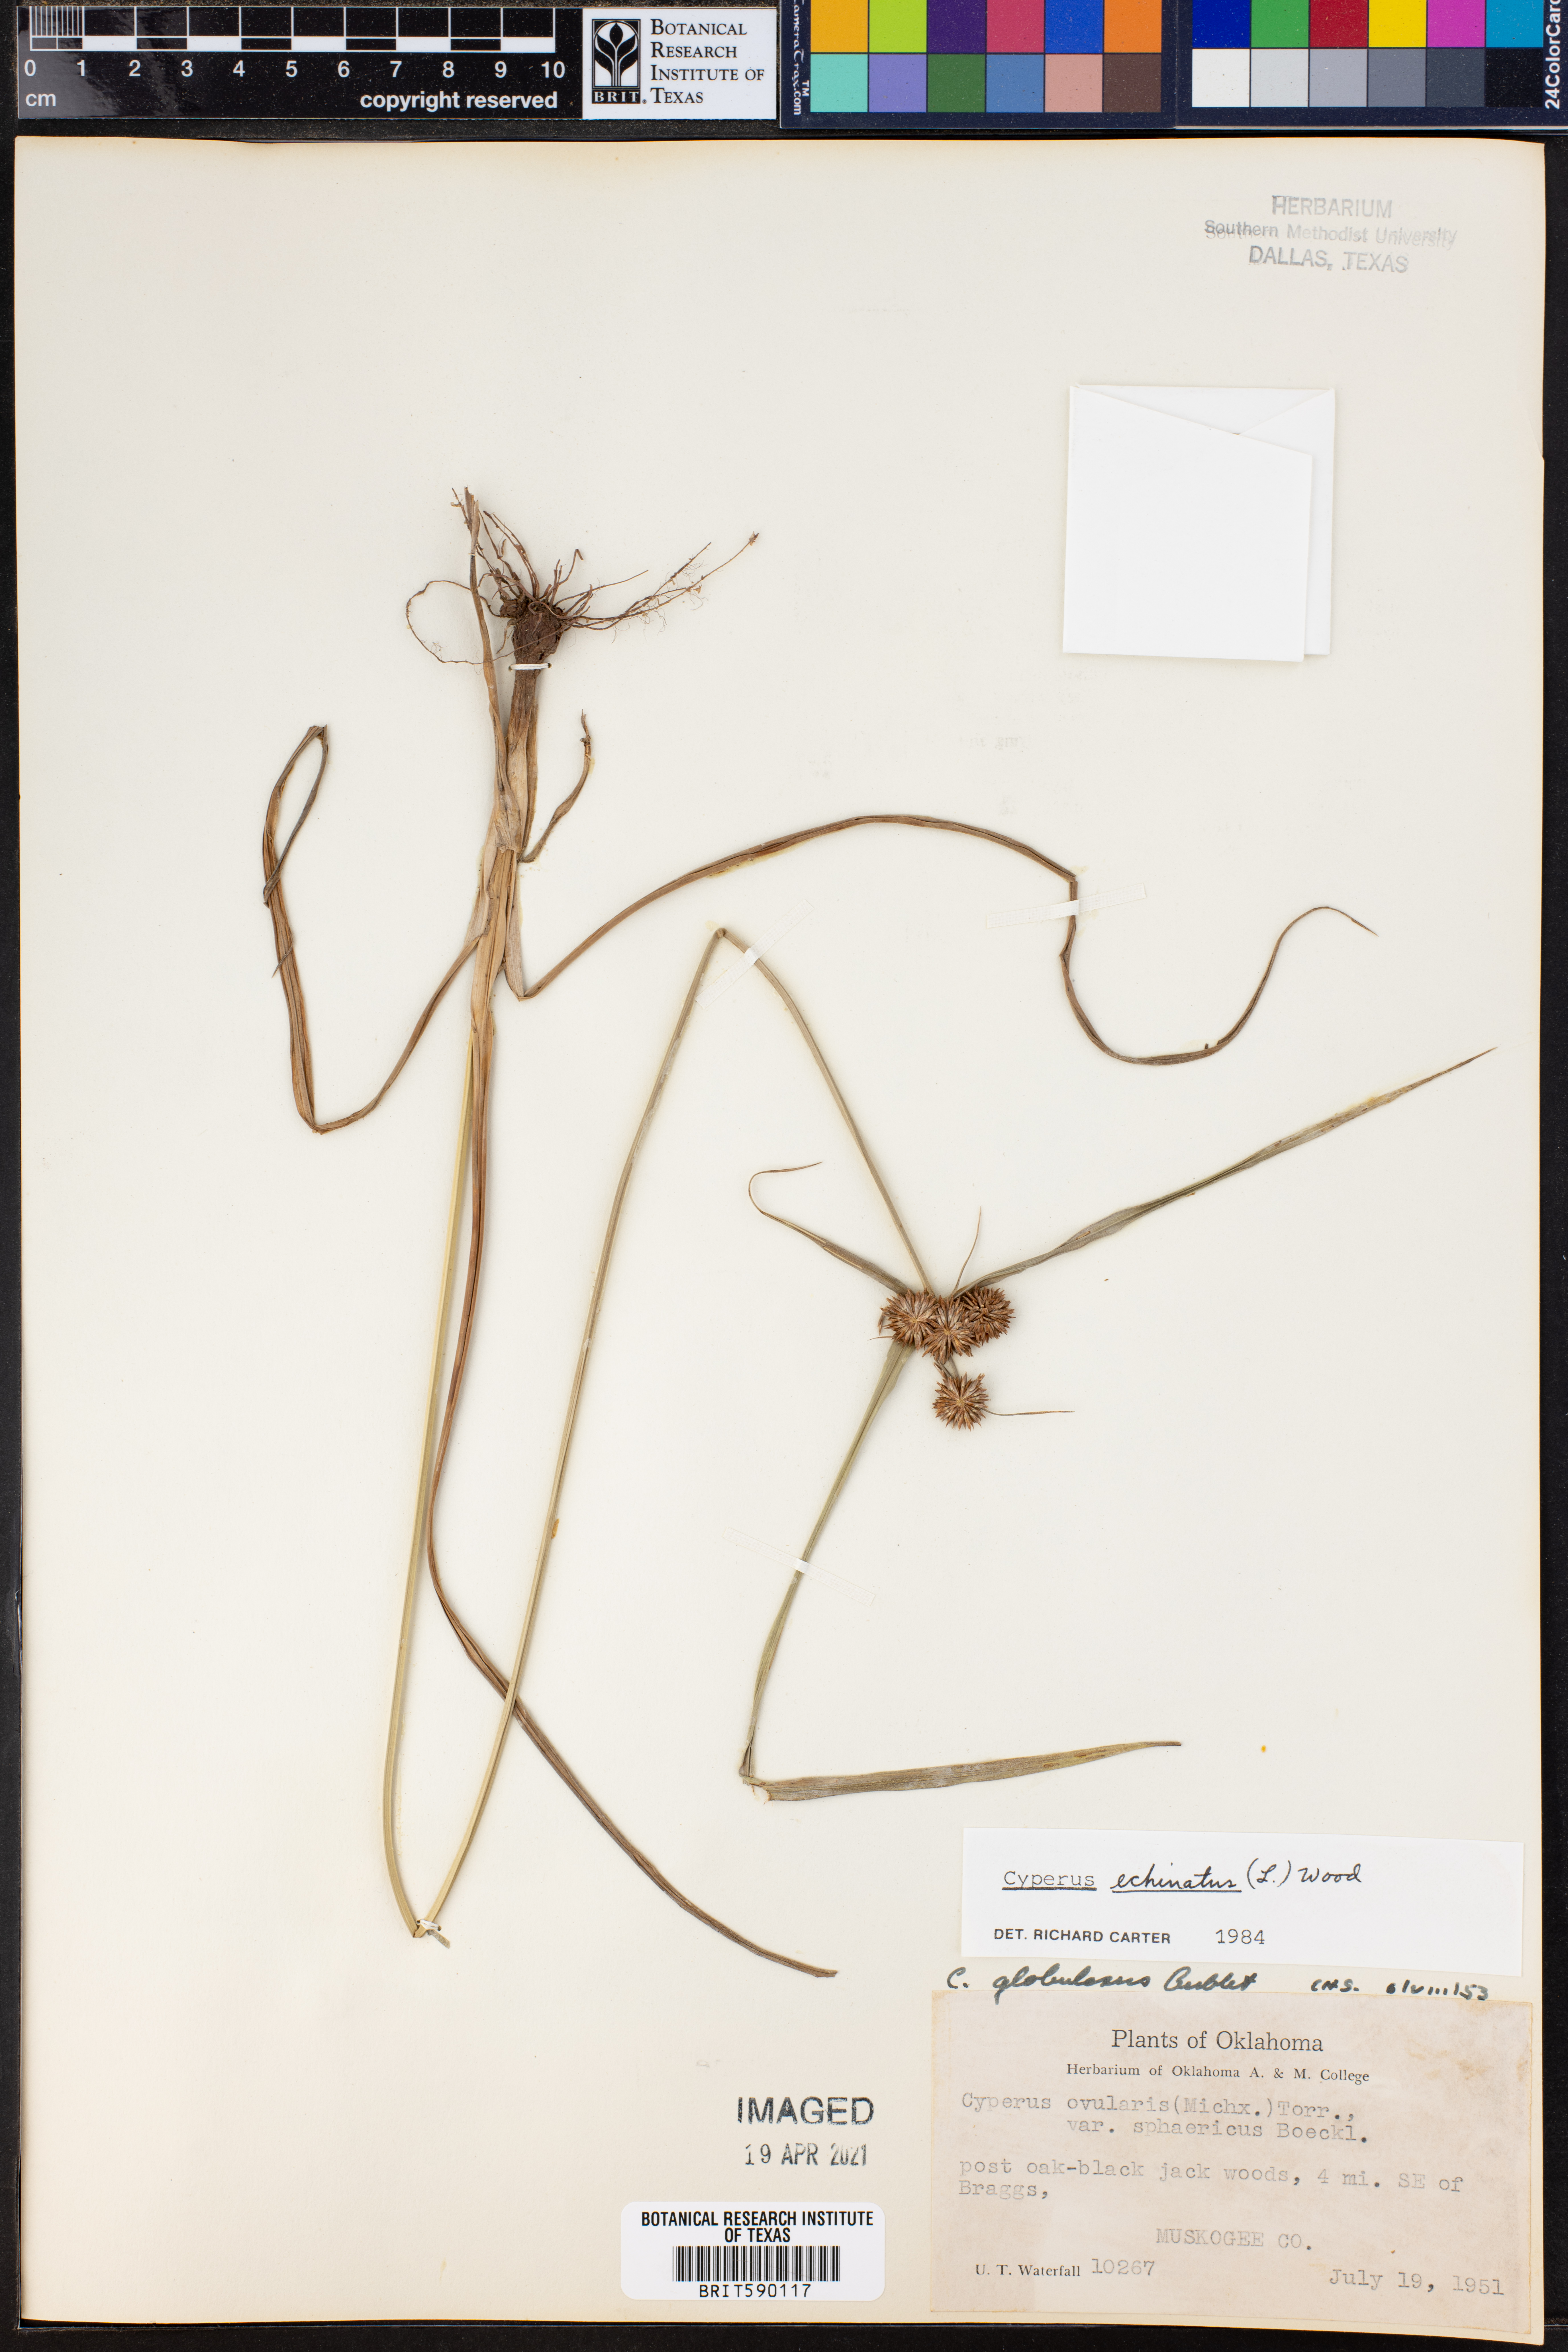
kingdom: Plantae
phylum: Tracheophyta
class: Liliopsida
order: Poales
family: Cyperaceae
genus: Cyperus
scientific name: Cyperus echinatus
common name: Teasel sedge
